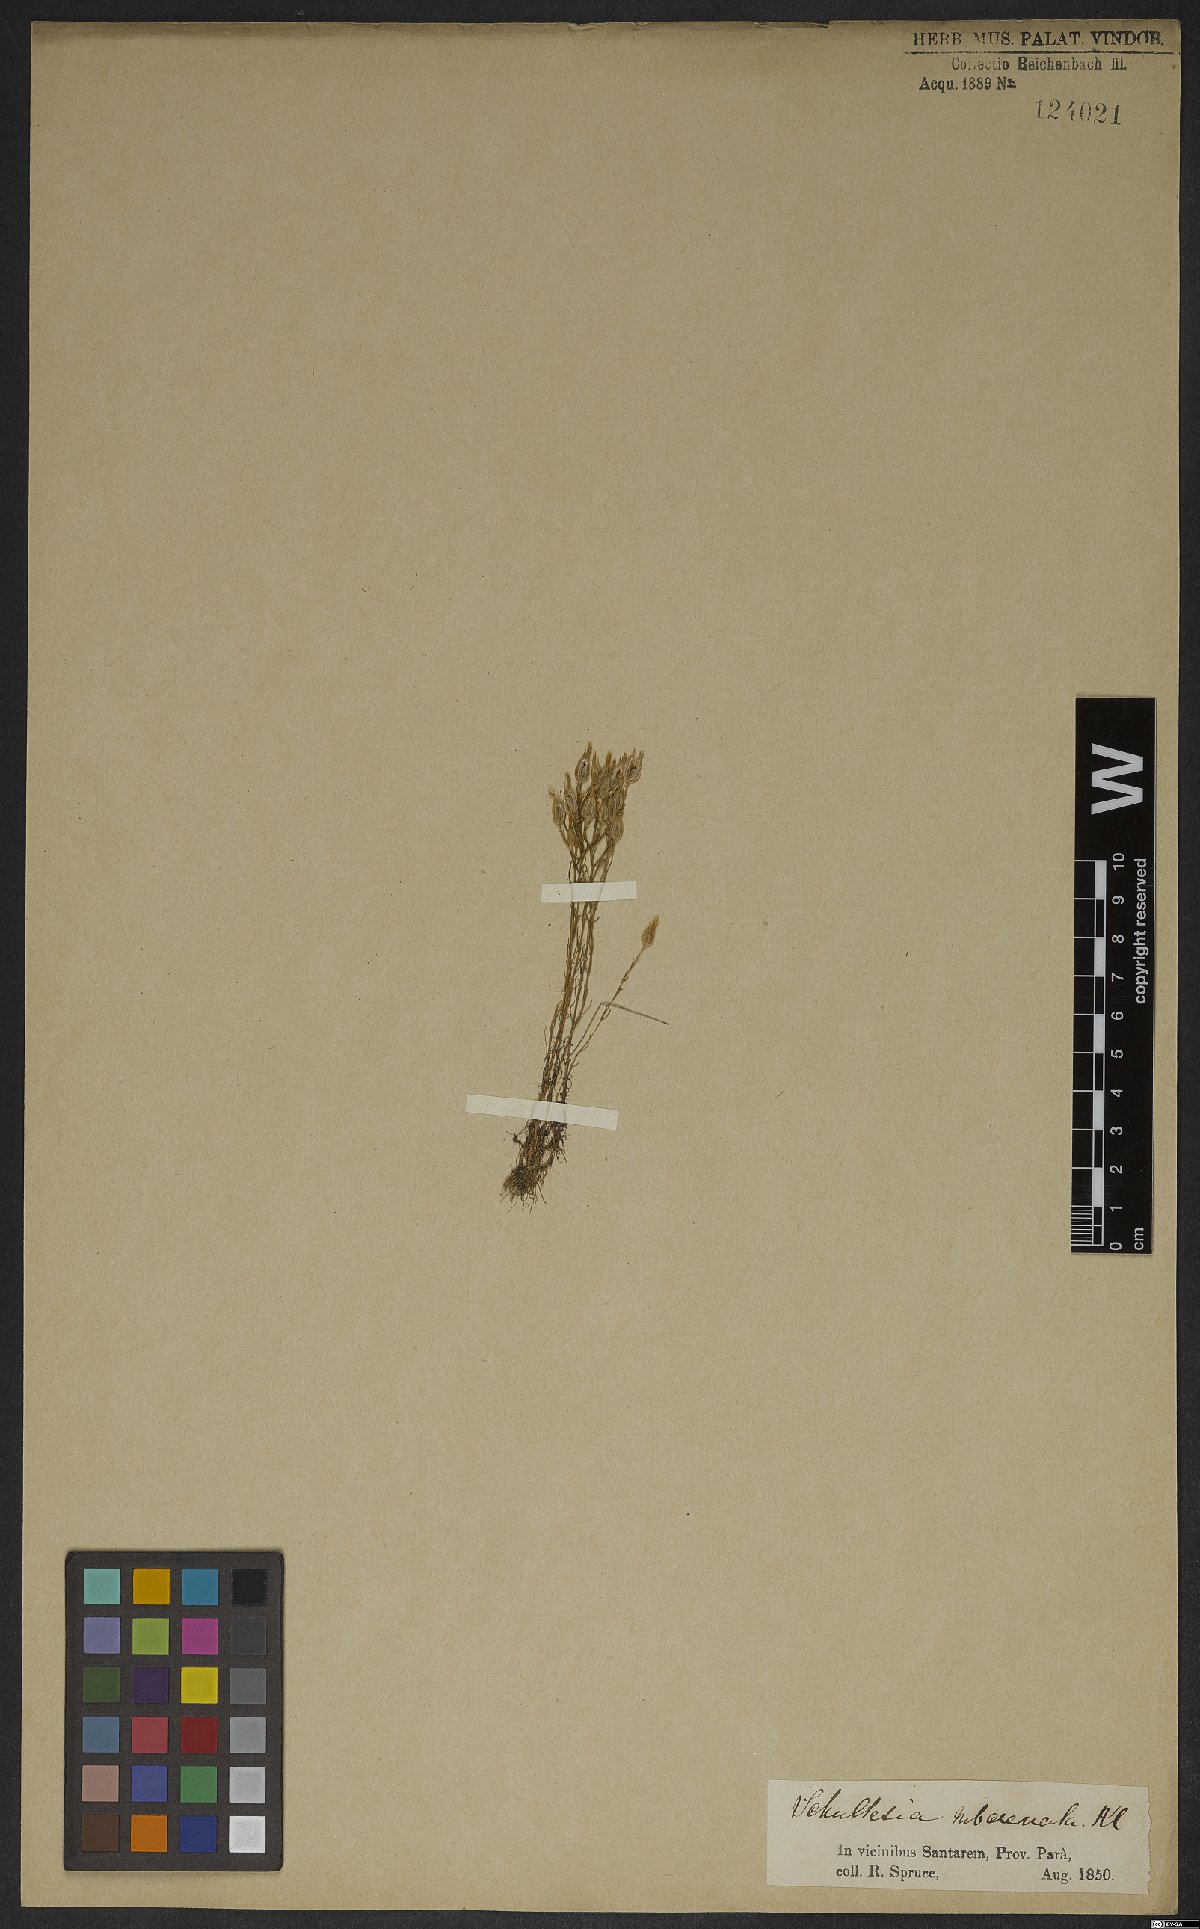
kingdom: Plantae
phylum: Tracheophyta
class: Magnoliopsida
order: Gentianales
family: Gentianaceae
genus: Schultesia
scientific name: Schultesia subcrenata
